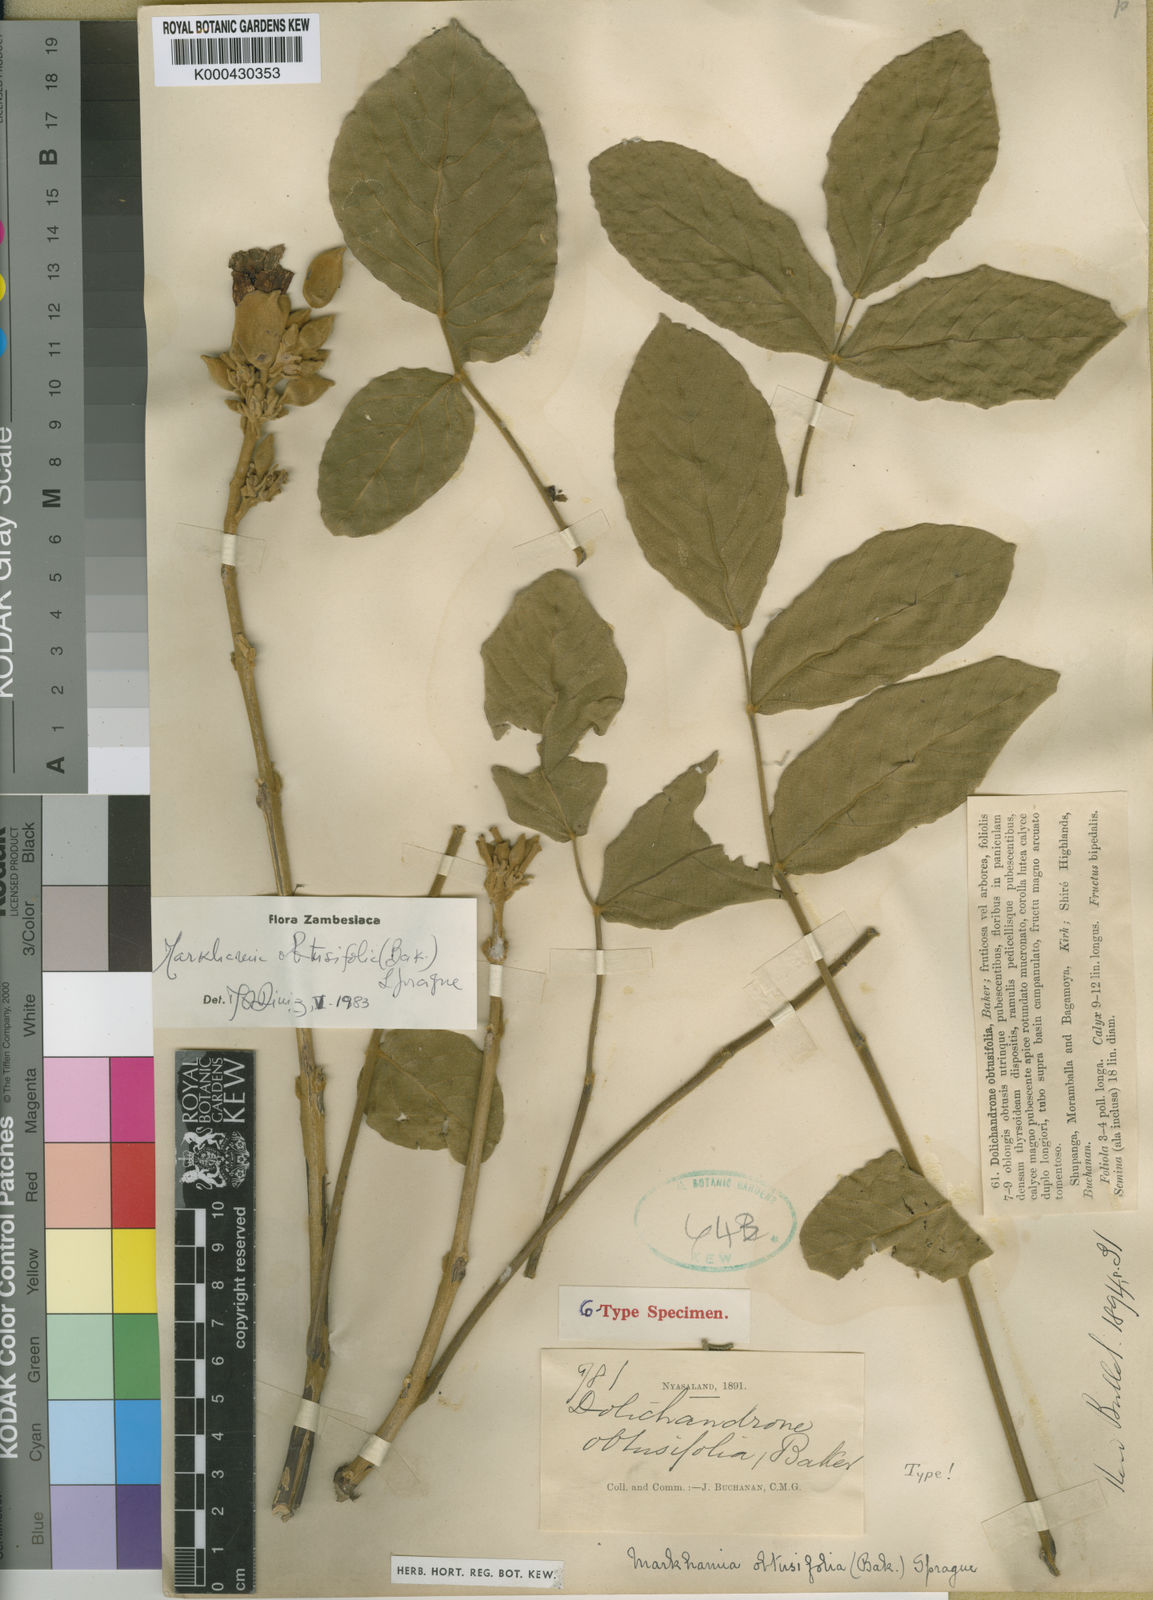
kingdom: Plantae
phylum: Tracheophyta
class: Magnoliopsida
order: Lamiales
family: Bignoniaceae
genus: Markhamia
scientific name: Markhamia obtusifolia
